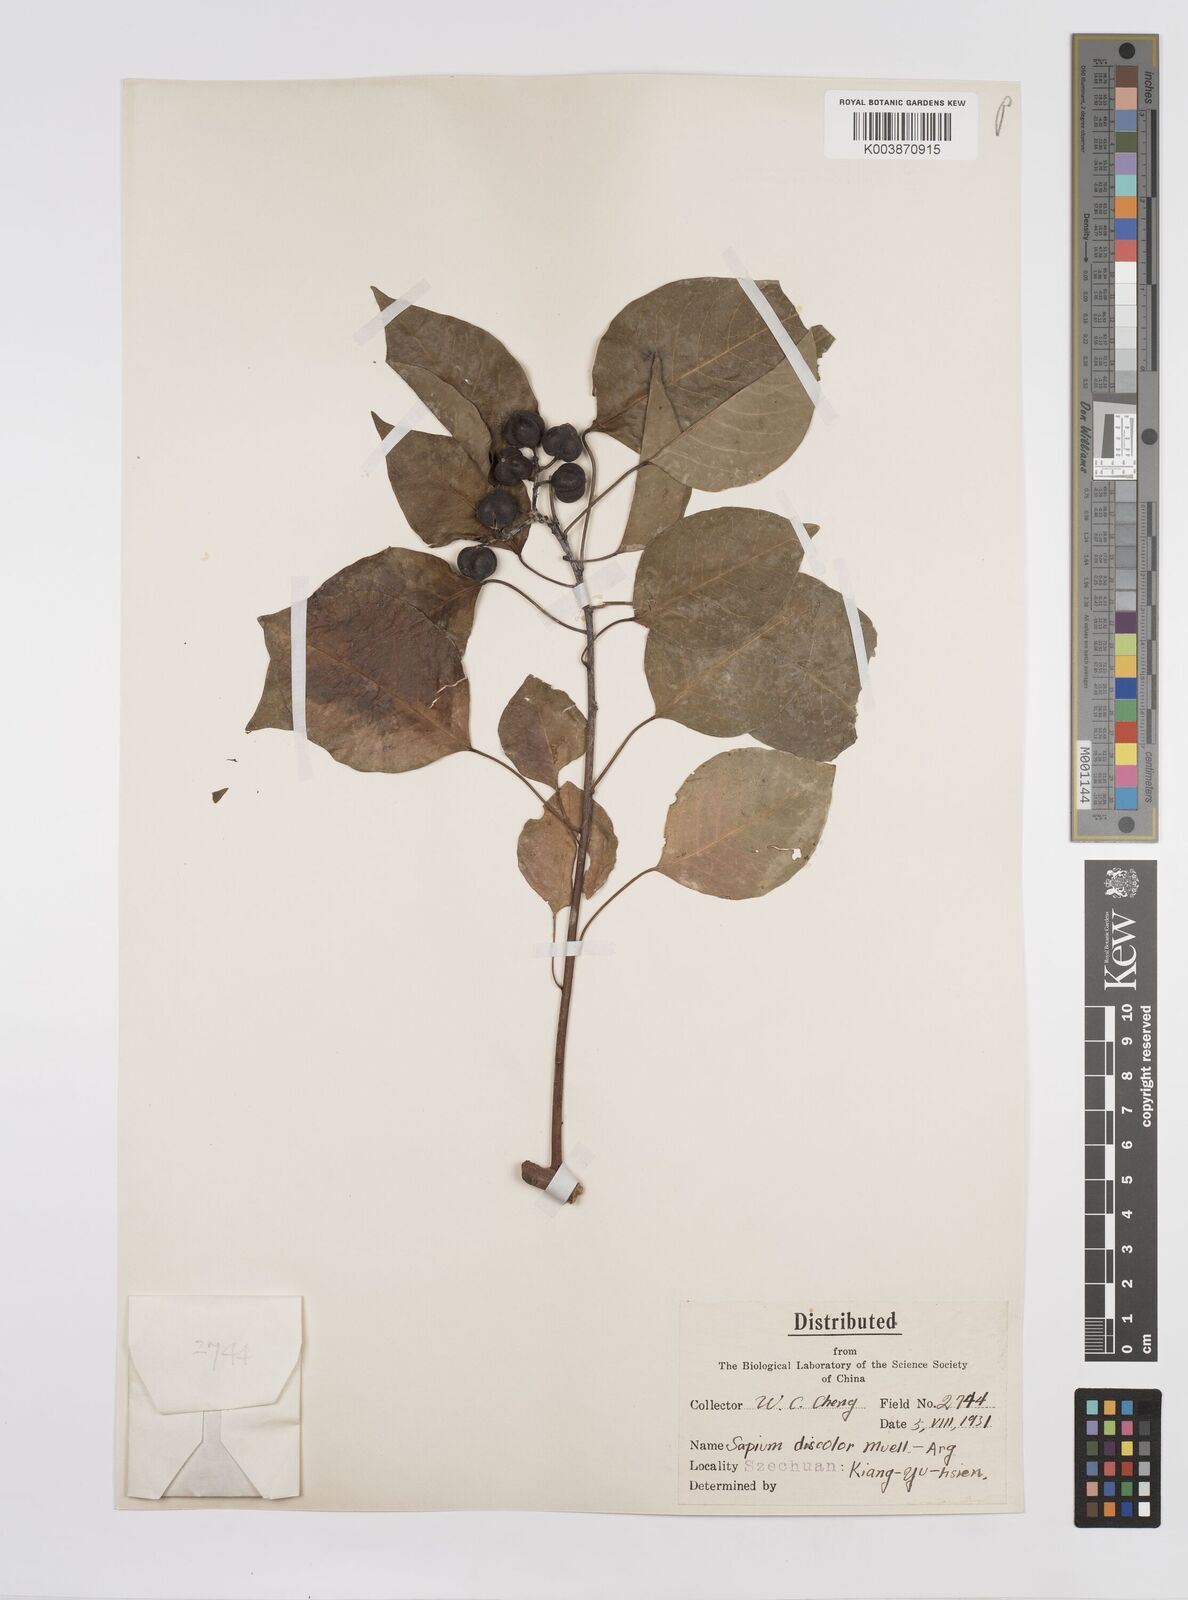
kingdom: Plantae
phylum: Tracheophyta
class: Magnoliopsida
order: Malpighiales
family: Euphorbiaceae
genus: Triadica
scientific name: Triadica cochinchinensis
